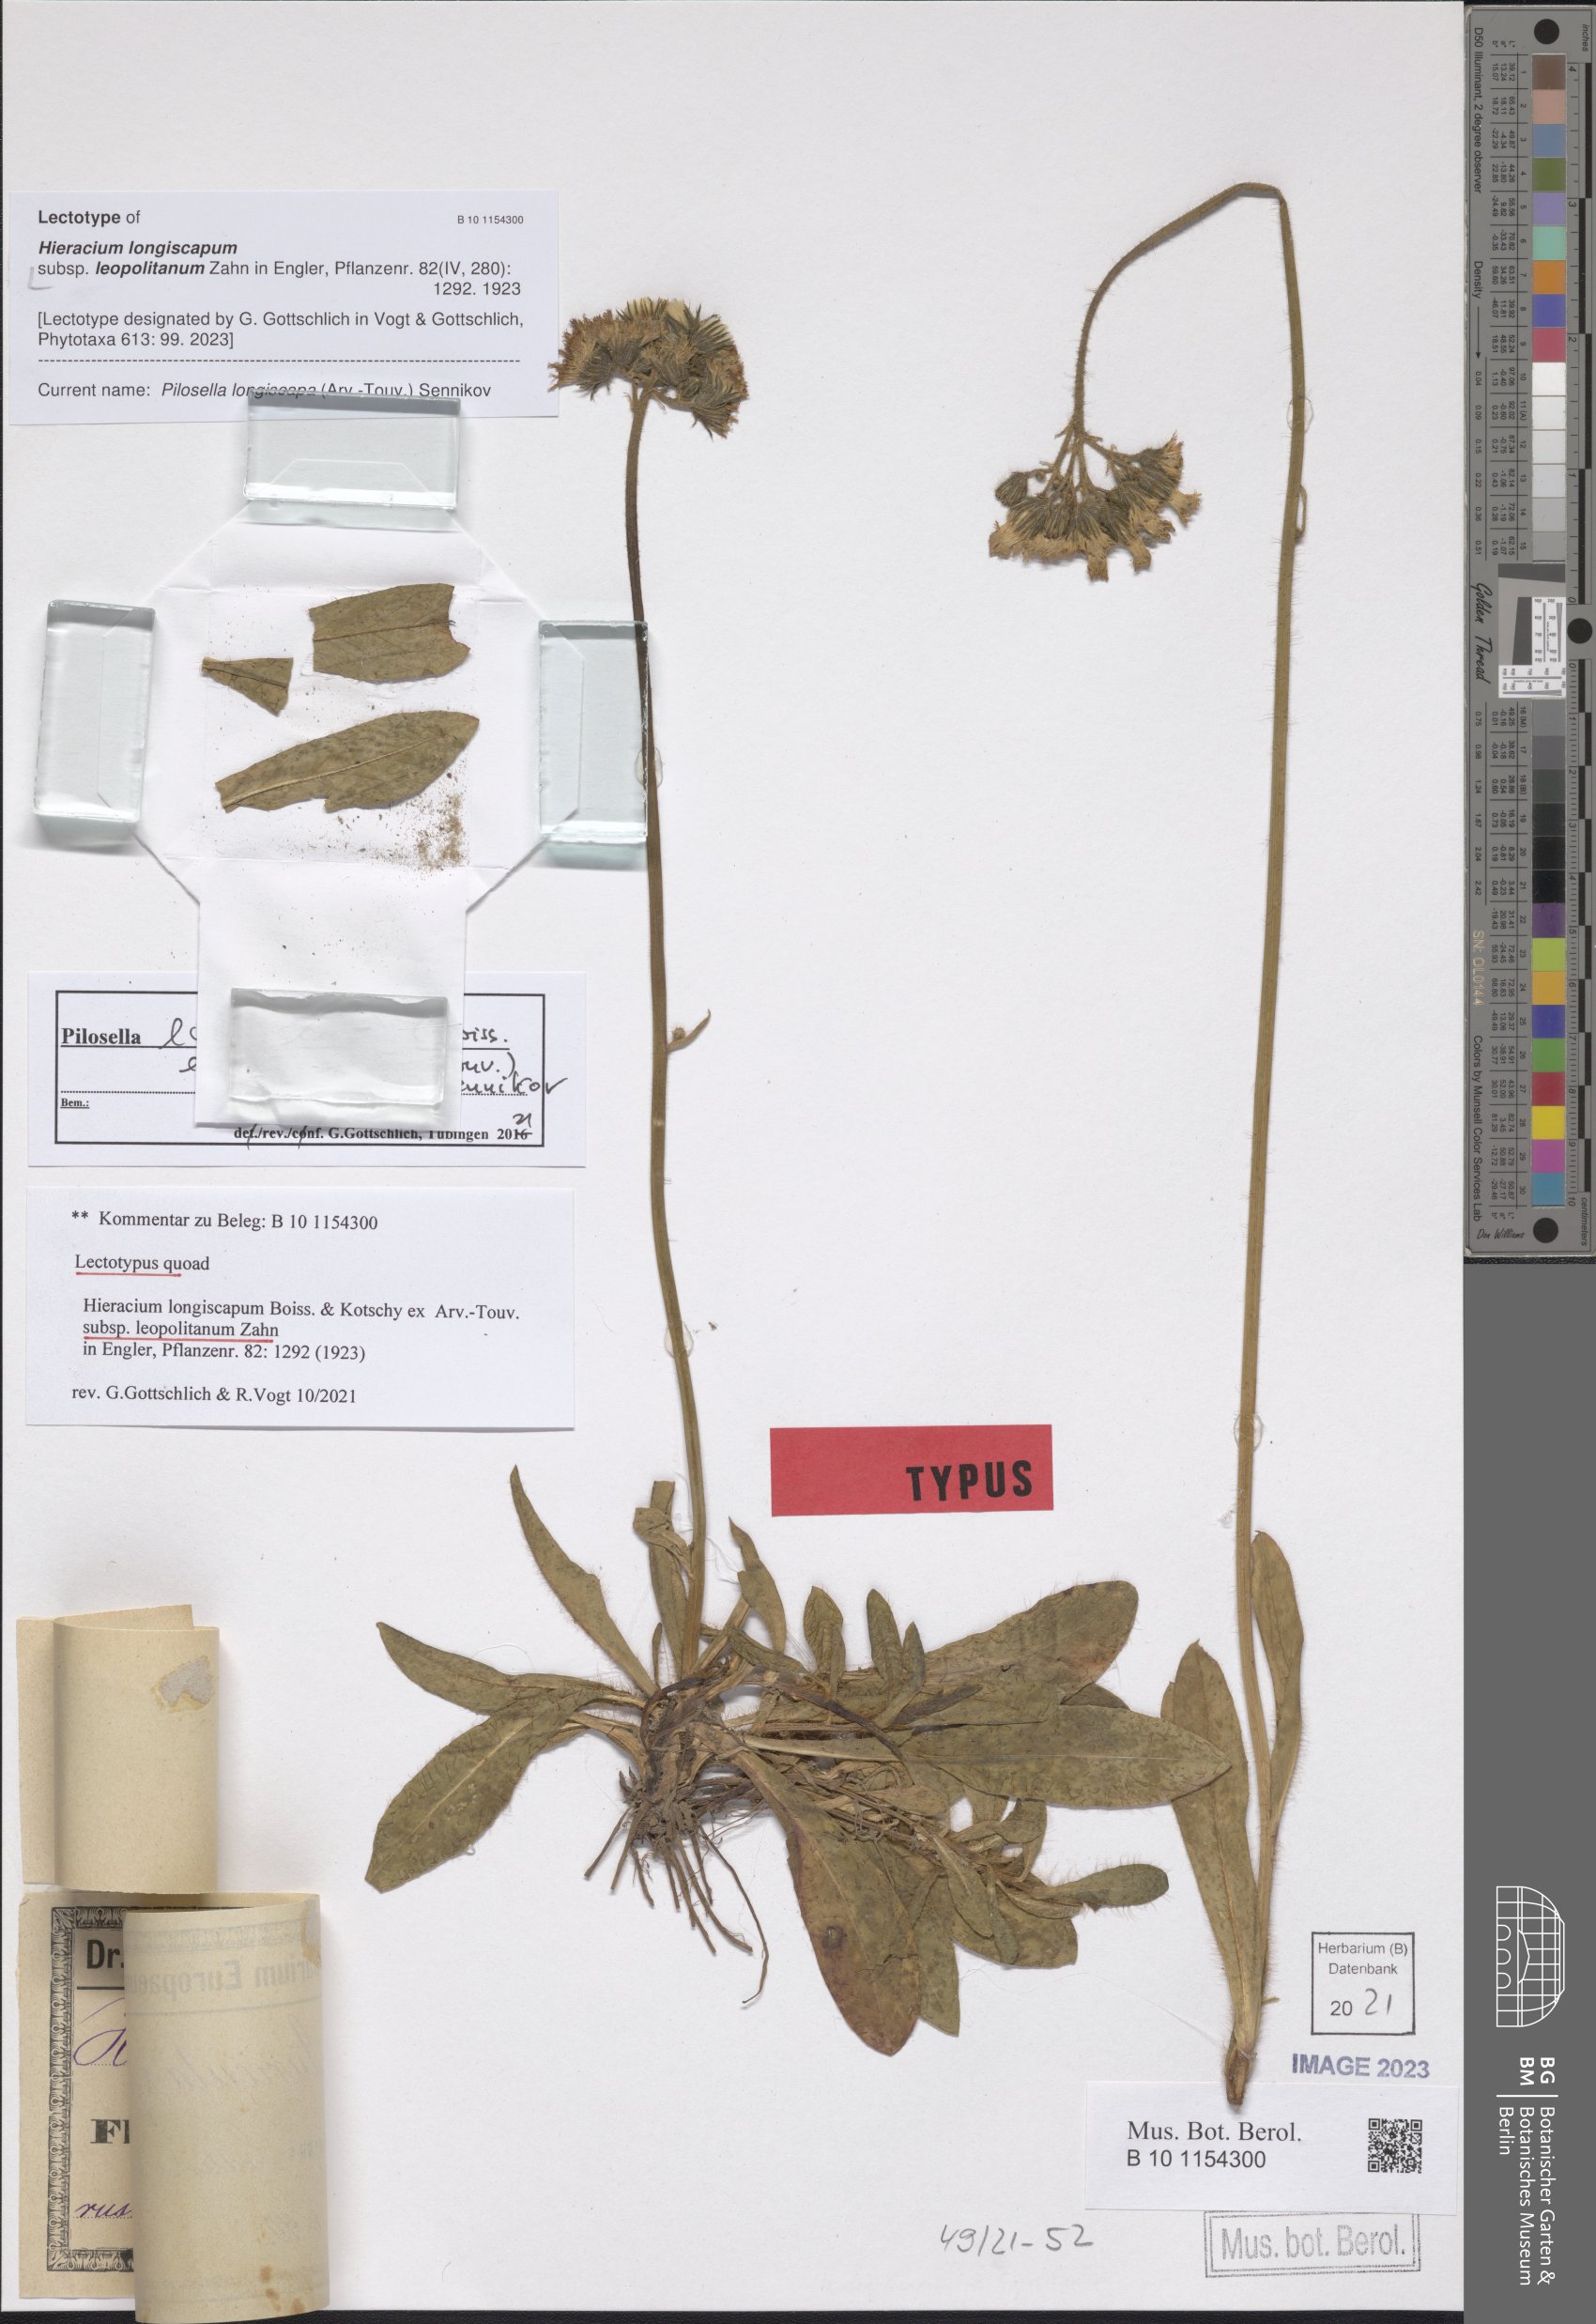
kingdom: Plantae
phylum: Tracheophyta
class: Magnoliopsida
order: Asterales
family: Asteraceae
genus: Pilosella
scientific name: Pilosella floribunda
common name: Glaucous hawkweed
